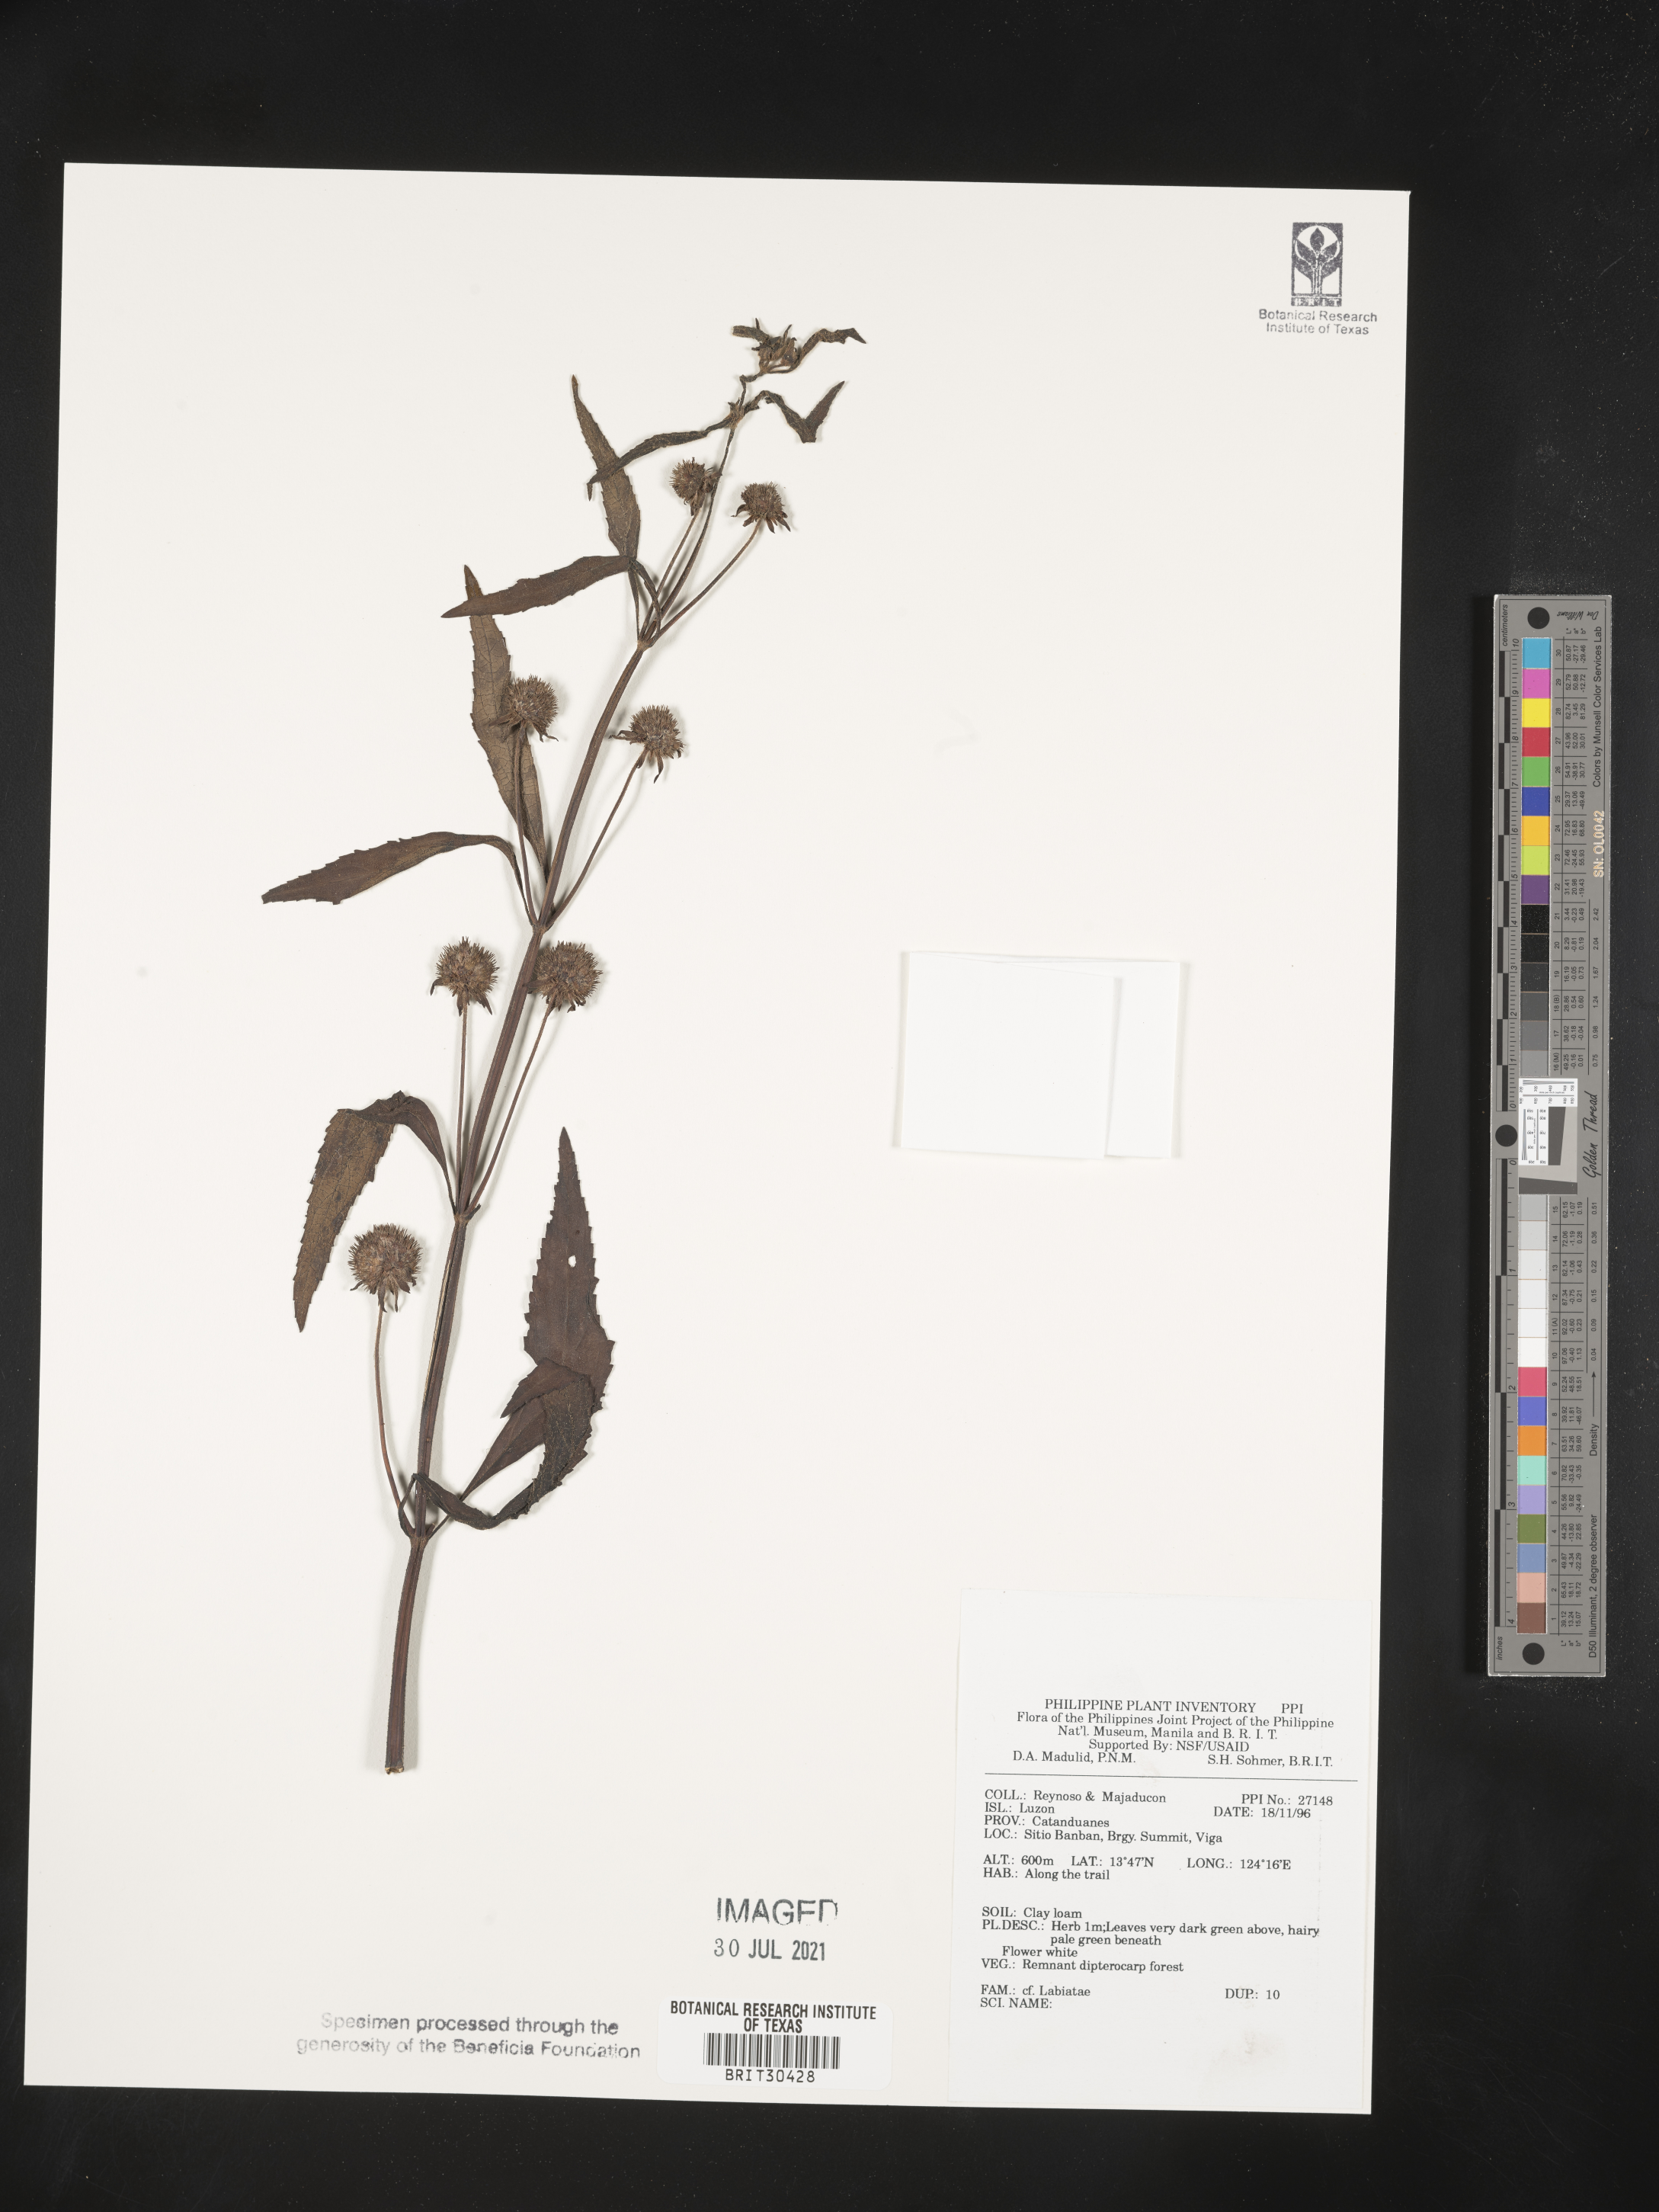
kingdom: Plantae
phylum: Tracheophyta
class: Magnoliopsida
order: Lamiales
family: Lamiaceae
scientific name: Lamiaceae
